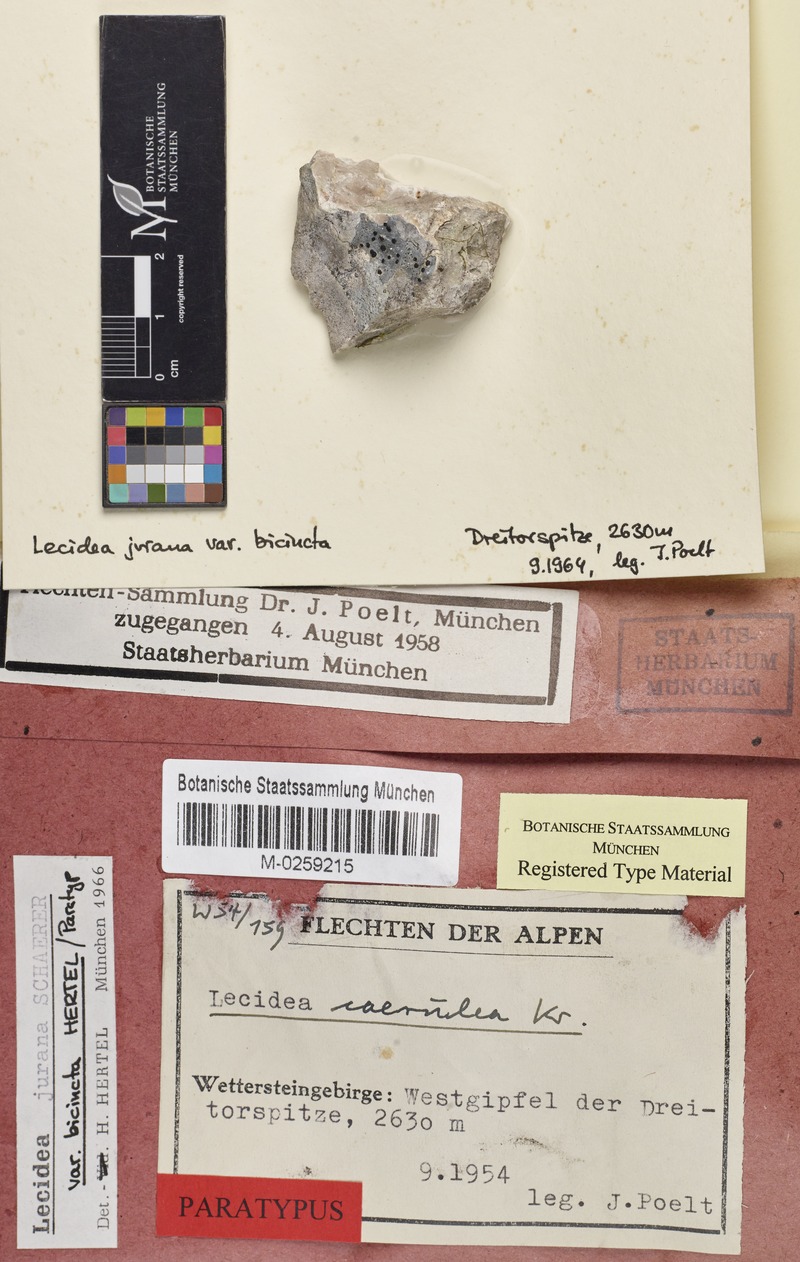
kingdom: Fungi
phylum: Ascomycota
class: Lecanoromycetes
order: Lecideales
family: Lecideaceae
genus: Farnoldia
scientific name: Farnoldia jurana
